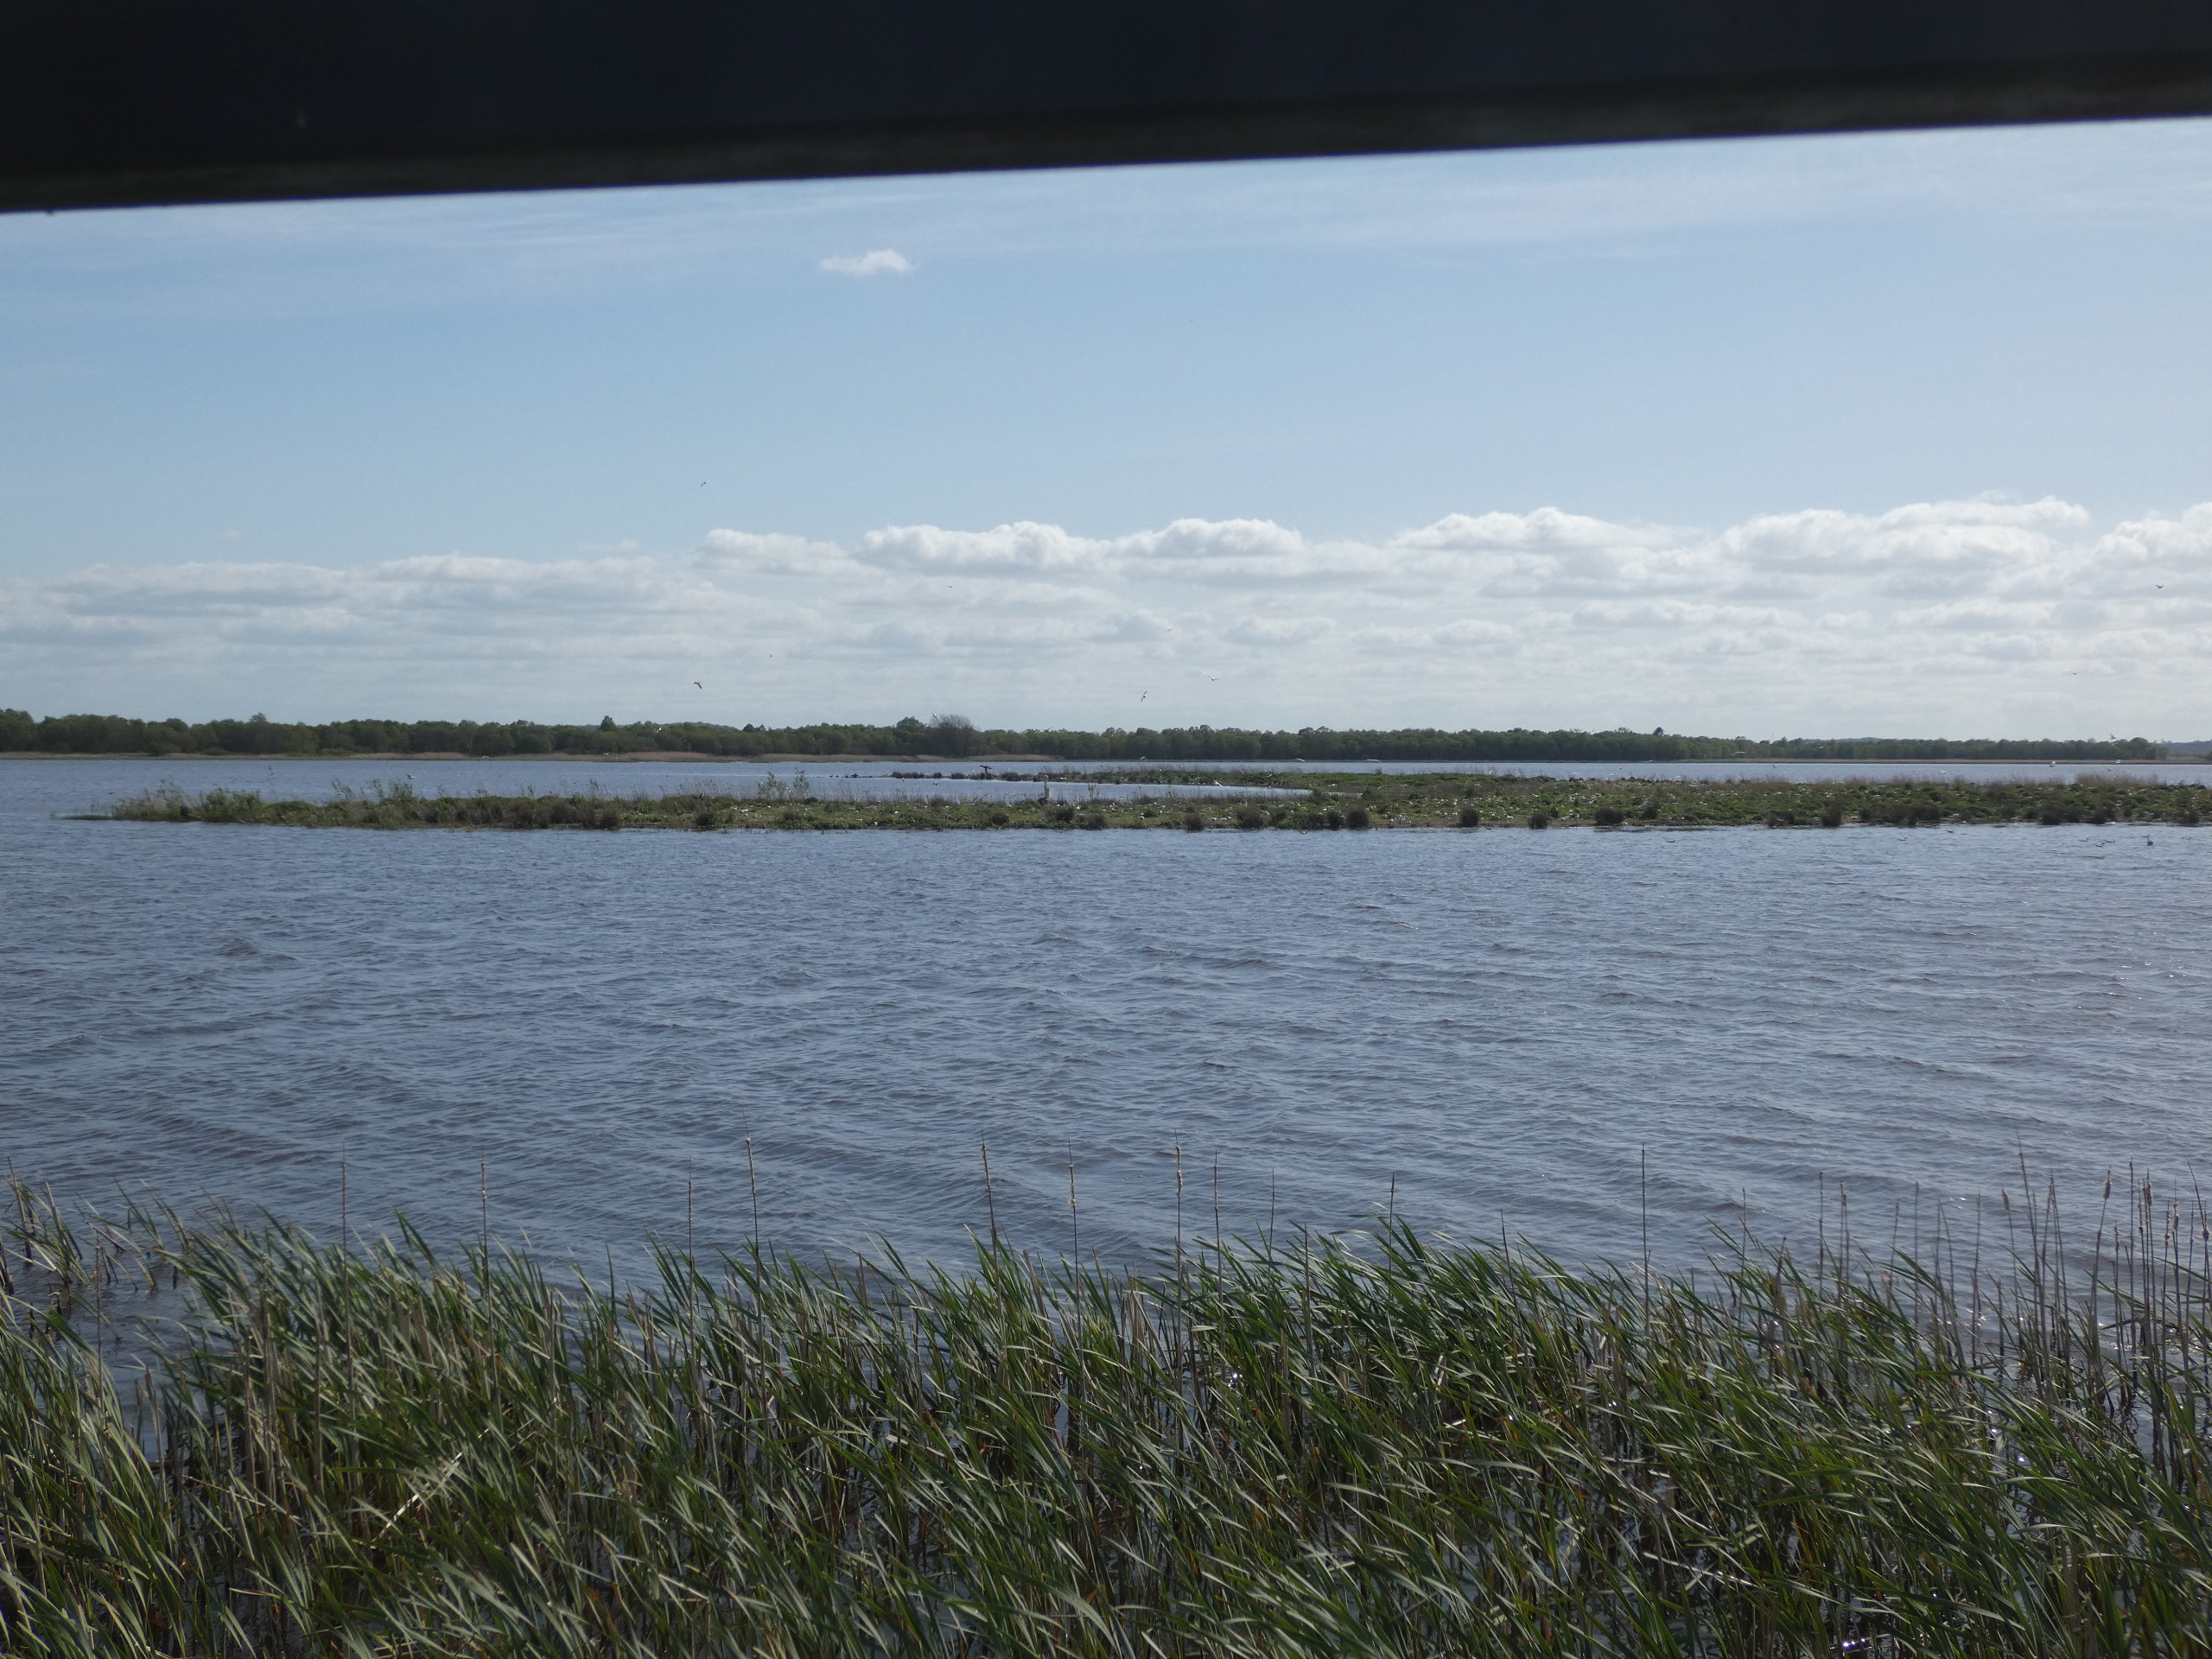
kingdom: Animalia
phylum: Chordata
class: Aves
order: Charadriiformes
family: Laridae
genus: Chroicocephalus
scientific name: Chroicocephalus ridibundus
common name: Hættemåge
